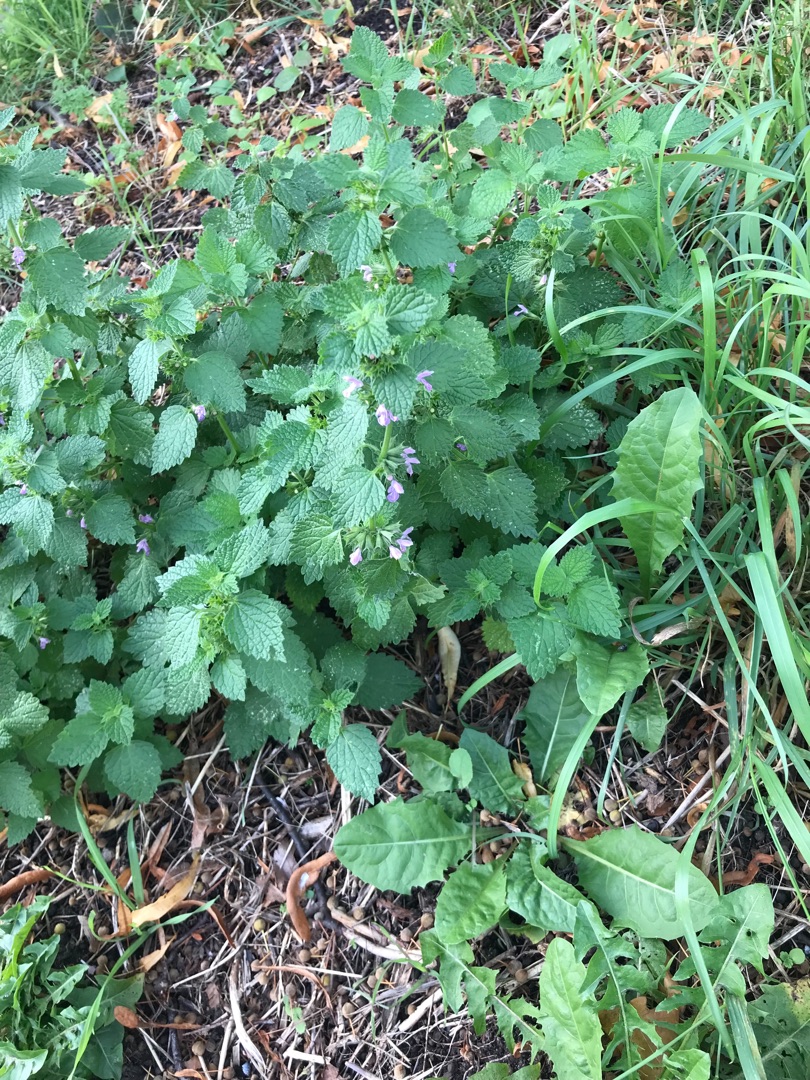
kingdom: Plantae
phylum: Tracheophyta
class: Magnoliopsida
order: Lamiales
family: Lamiaceae
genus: Ballota
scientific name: Ballota nigra
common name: Rød tandbæger
